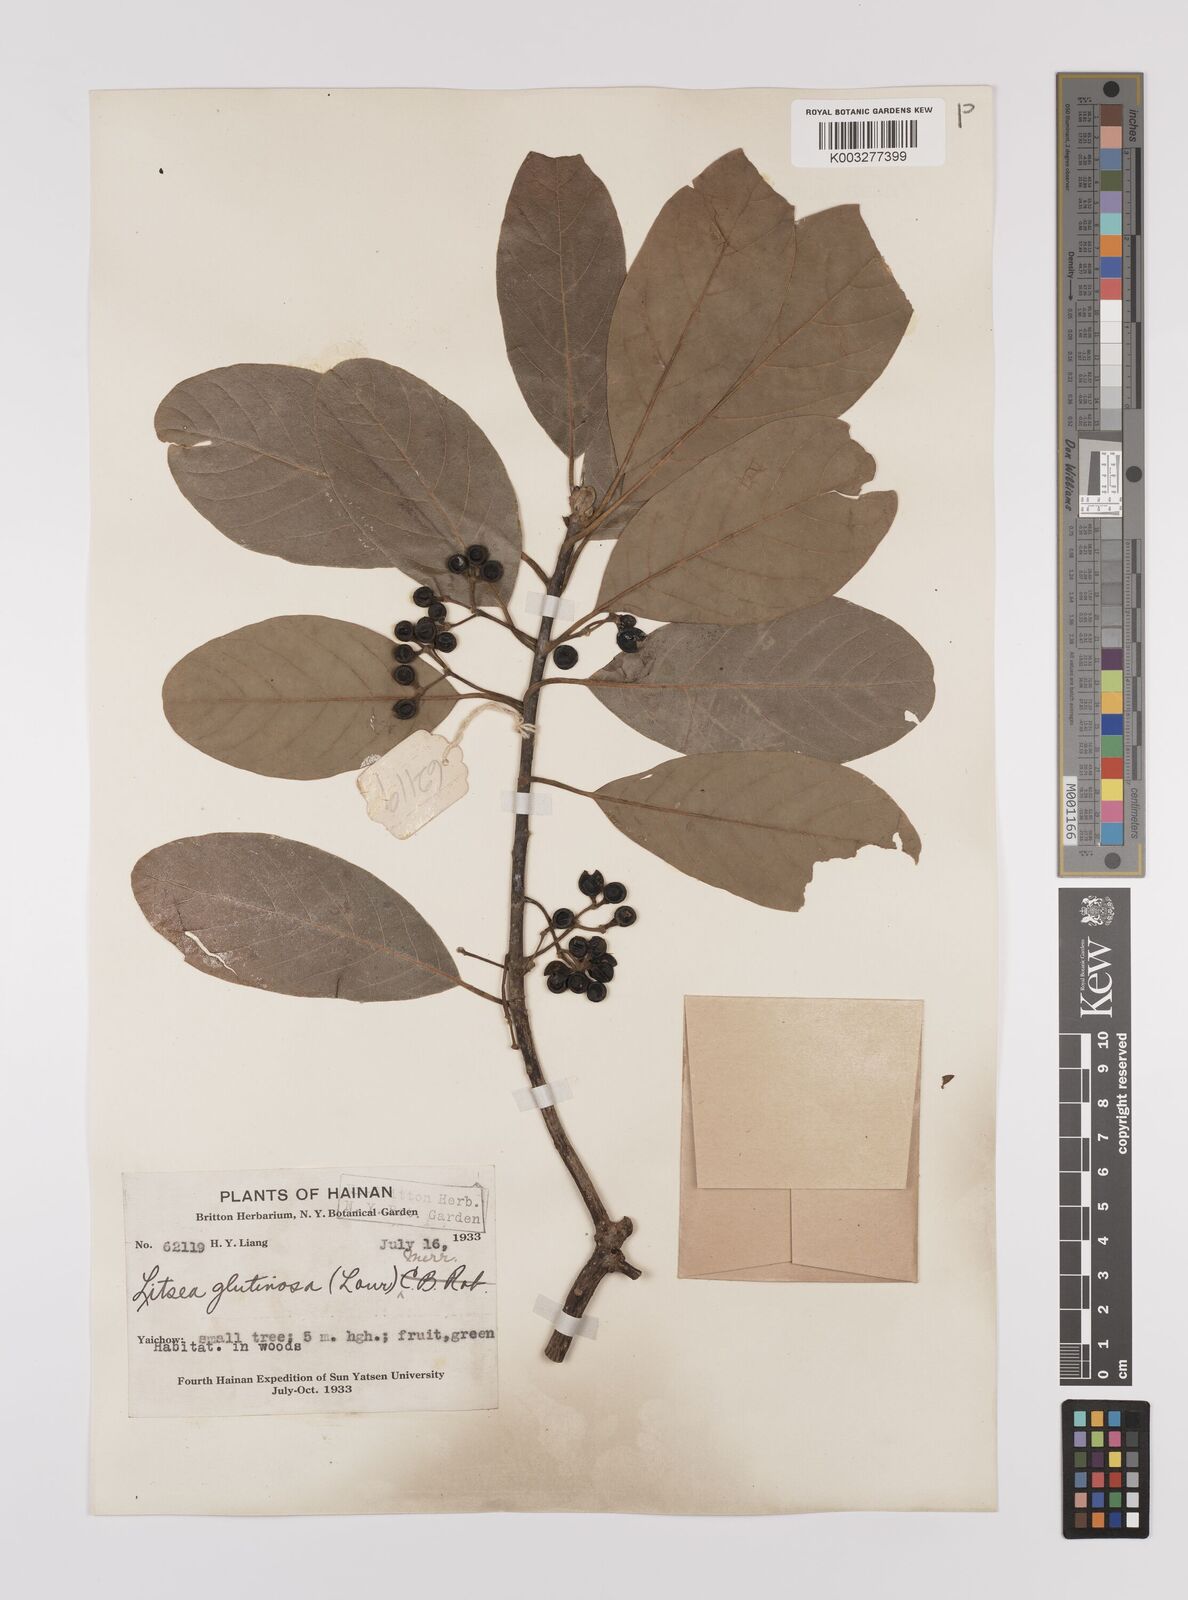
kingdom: Plantae
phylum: Tracheophyta
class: Magnoliopsida
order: Laurales
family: Lauraceae
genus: Litsea
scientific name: Litsea glutinosa
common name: Indian-laurel
